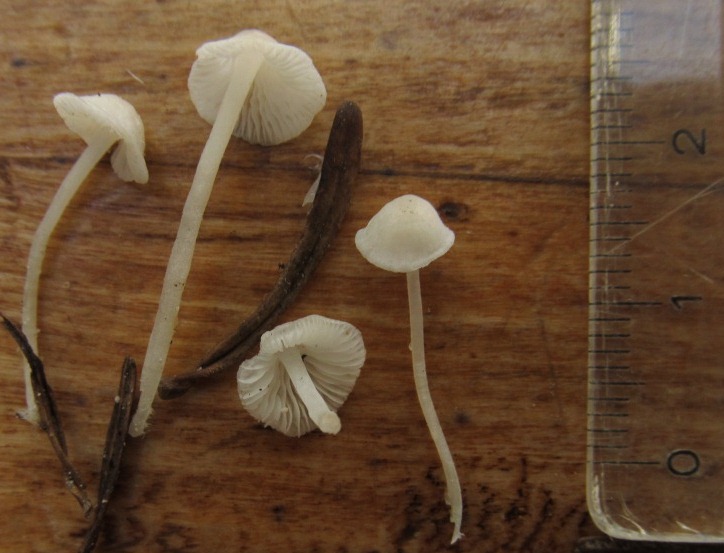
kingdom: Fungi
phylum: Basidiomycota
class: Agaricomycetes
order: Agaricales
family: Mycenaceae
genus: Hemimycena
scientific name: Hemimycena lactea
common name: mælkehvid huesvamp
